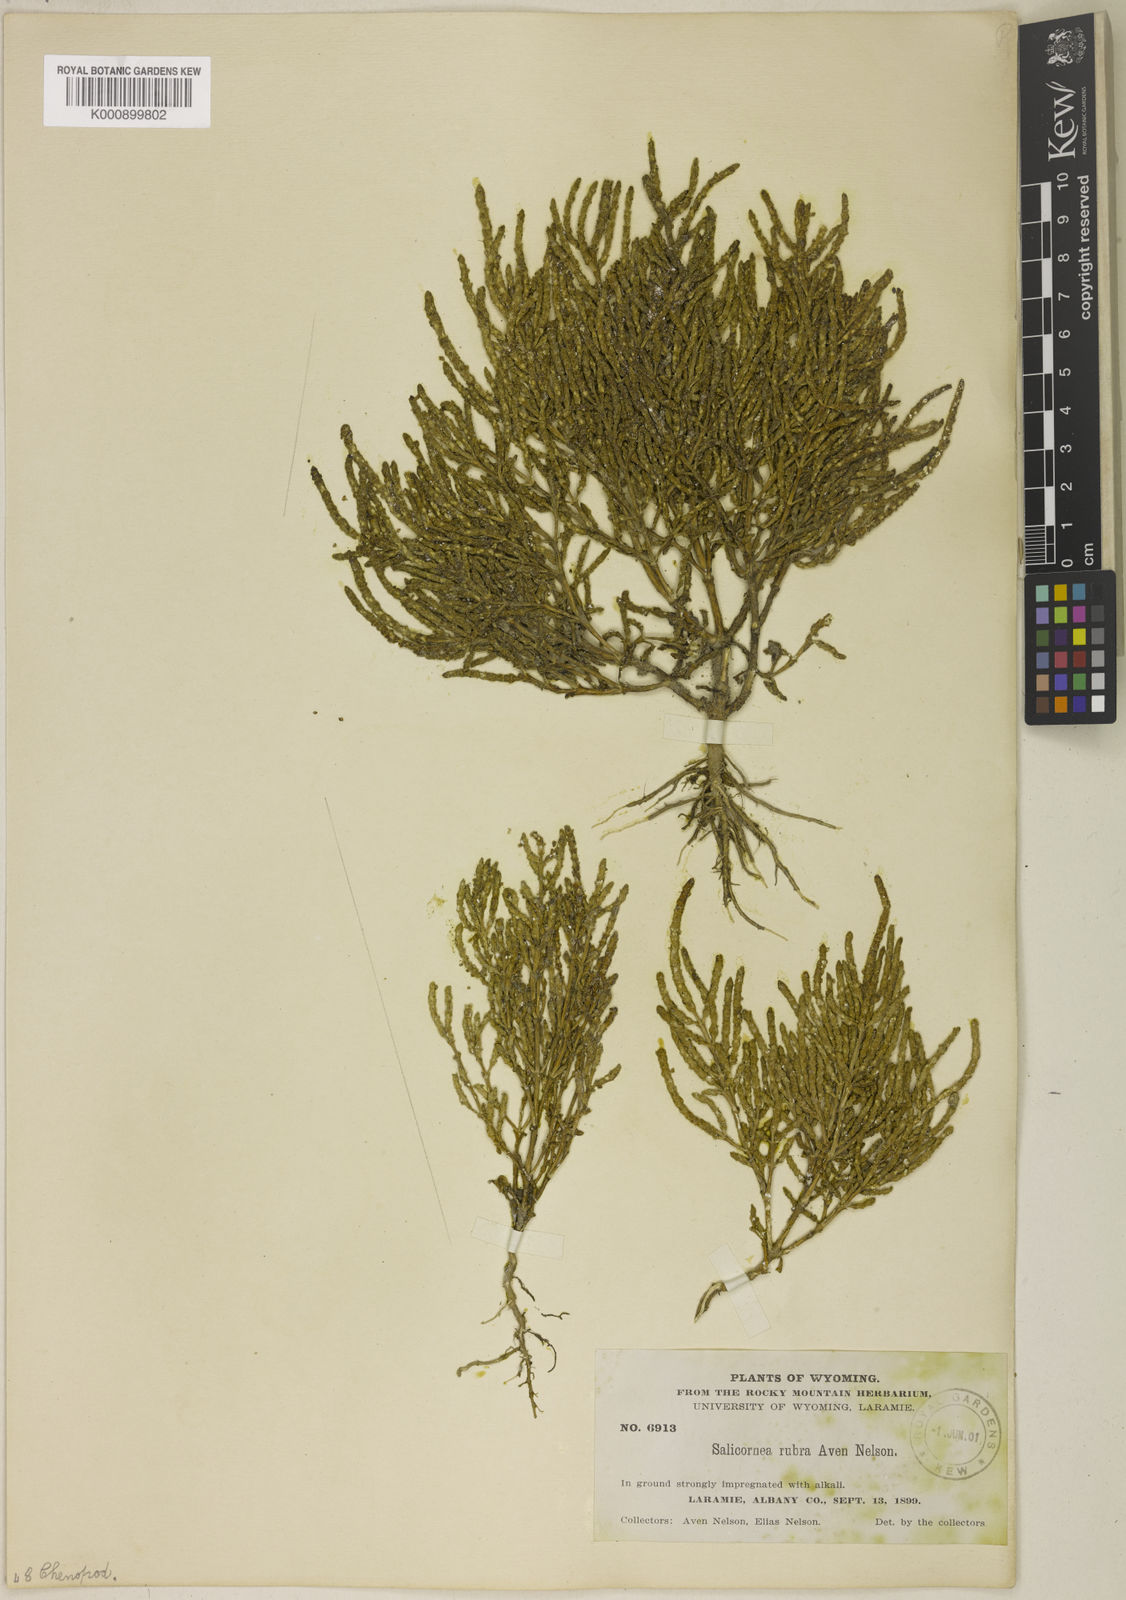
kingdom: Plantae
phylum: Tracheophyta
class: Magnoliopsida
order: Caryophyllales
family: Amaranthaceae
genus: Salicornia
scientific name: Salicornia rubra
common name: Red glasswort
